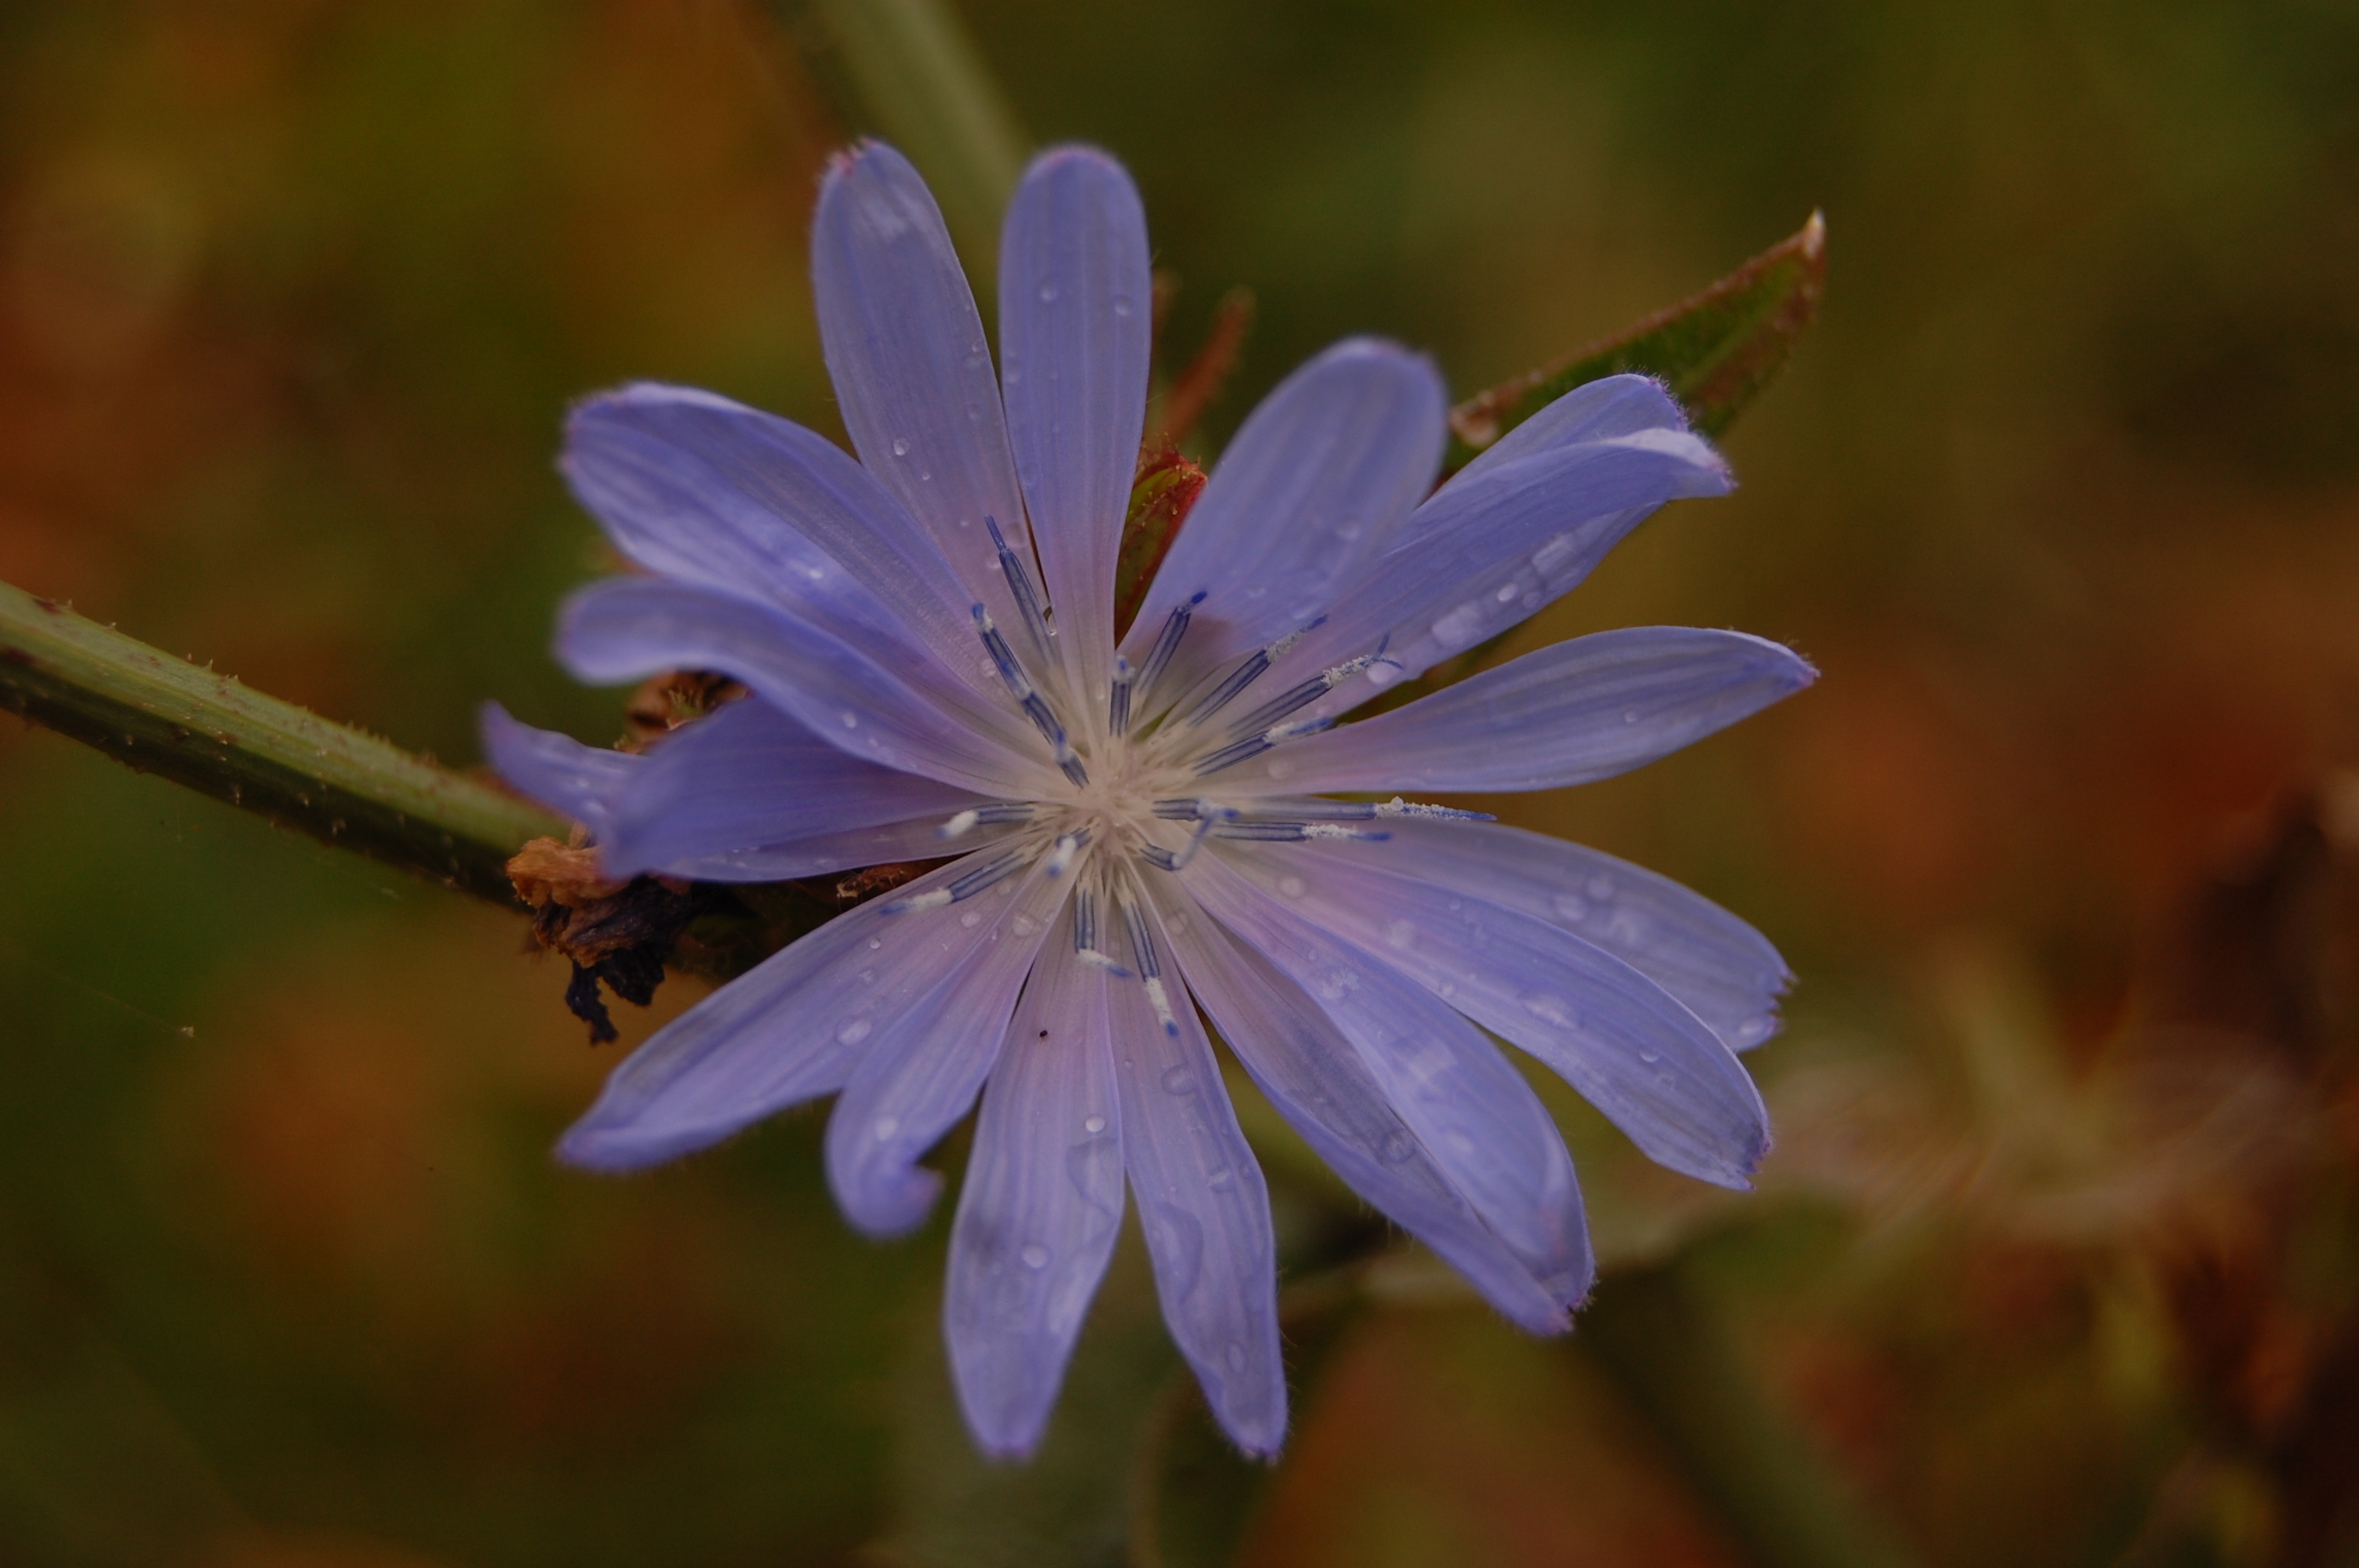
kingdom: Plantae
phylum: Tracheophyta
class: Magnoliopsida
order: Asterales
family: Asteraceae
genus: Cichorium
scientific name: Cichorium intybus
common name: Chicory
